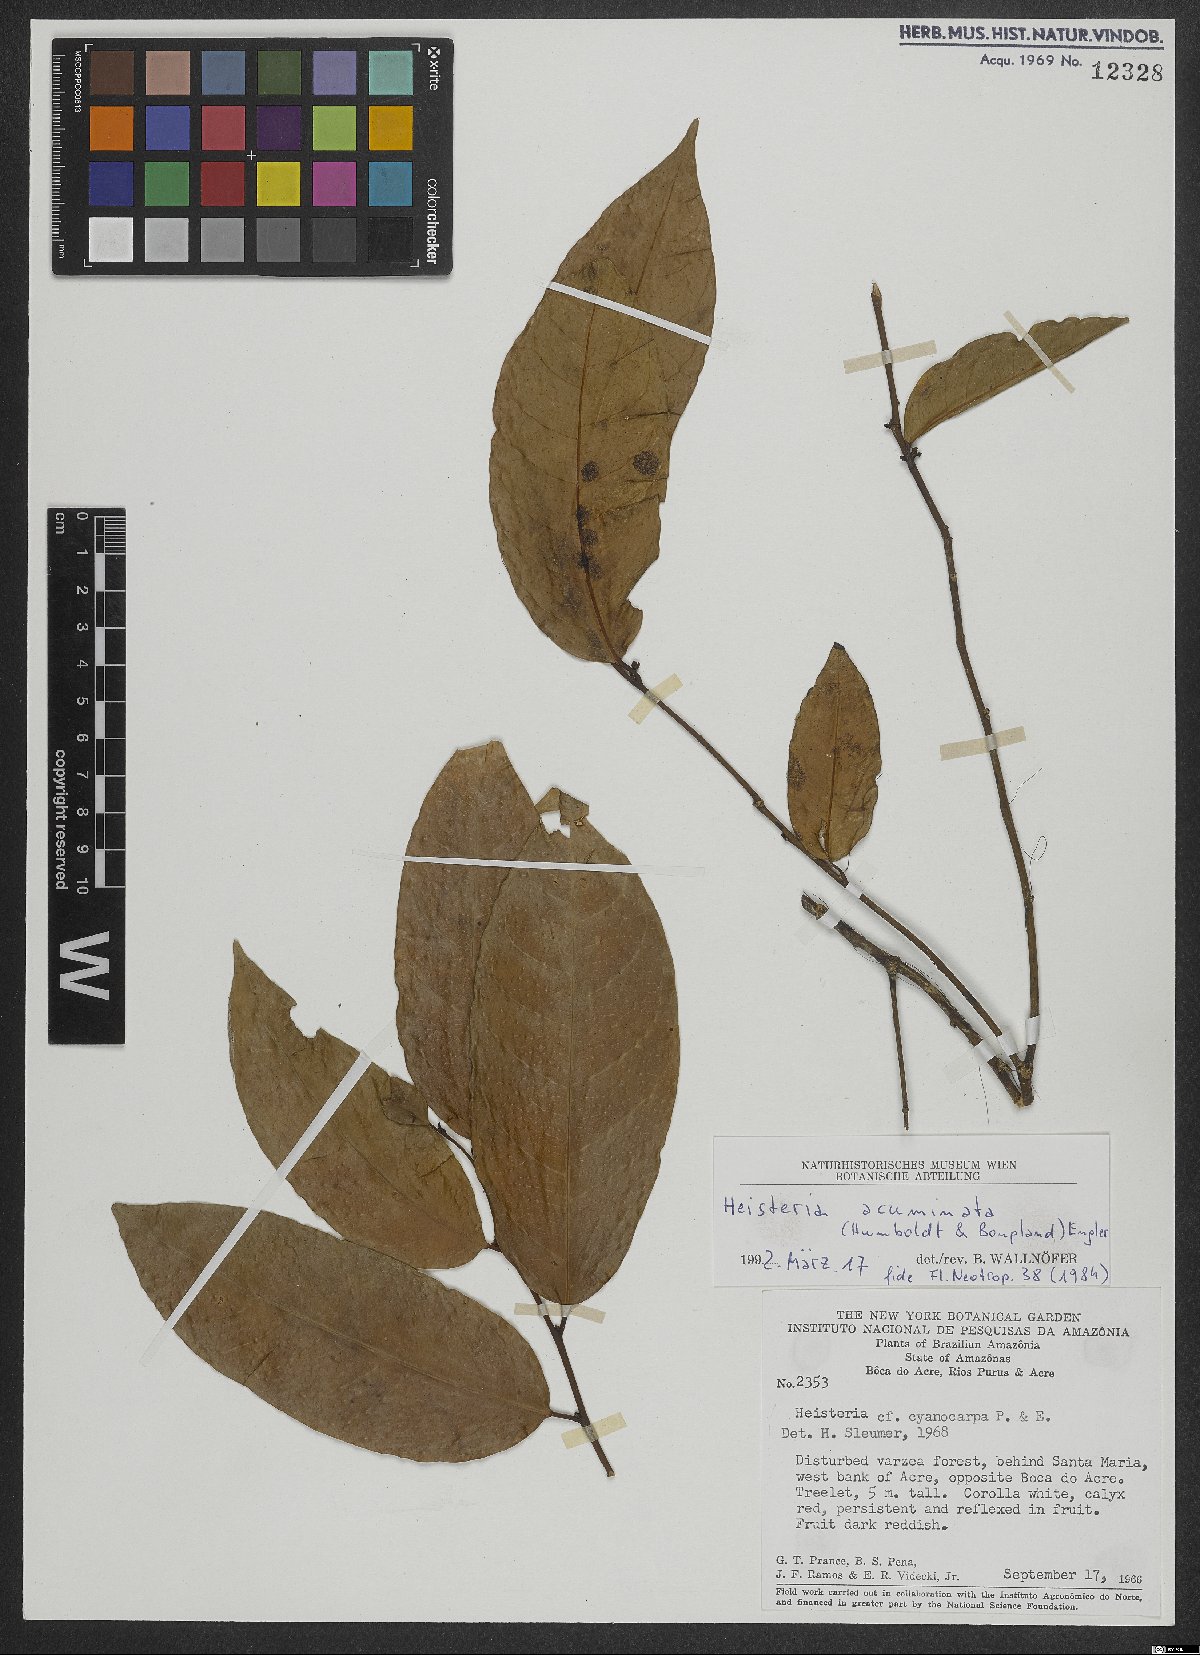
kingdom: Plantae
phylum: Tracheophyta
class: Magnoliopsida
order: Santalales
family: Erythropalaceae
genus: Heisteria
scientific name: Heisteria acuminata
